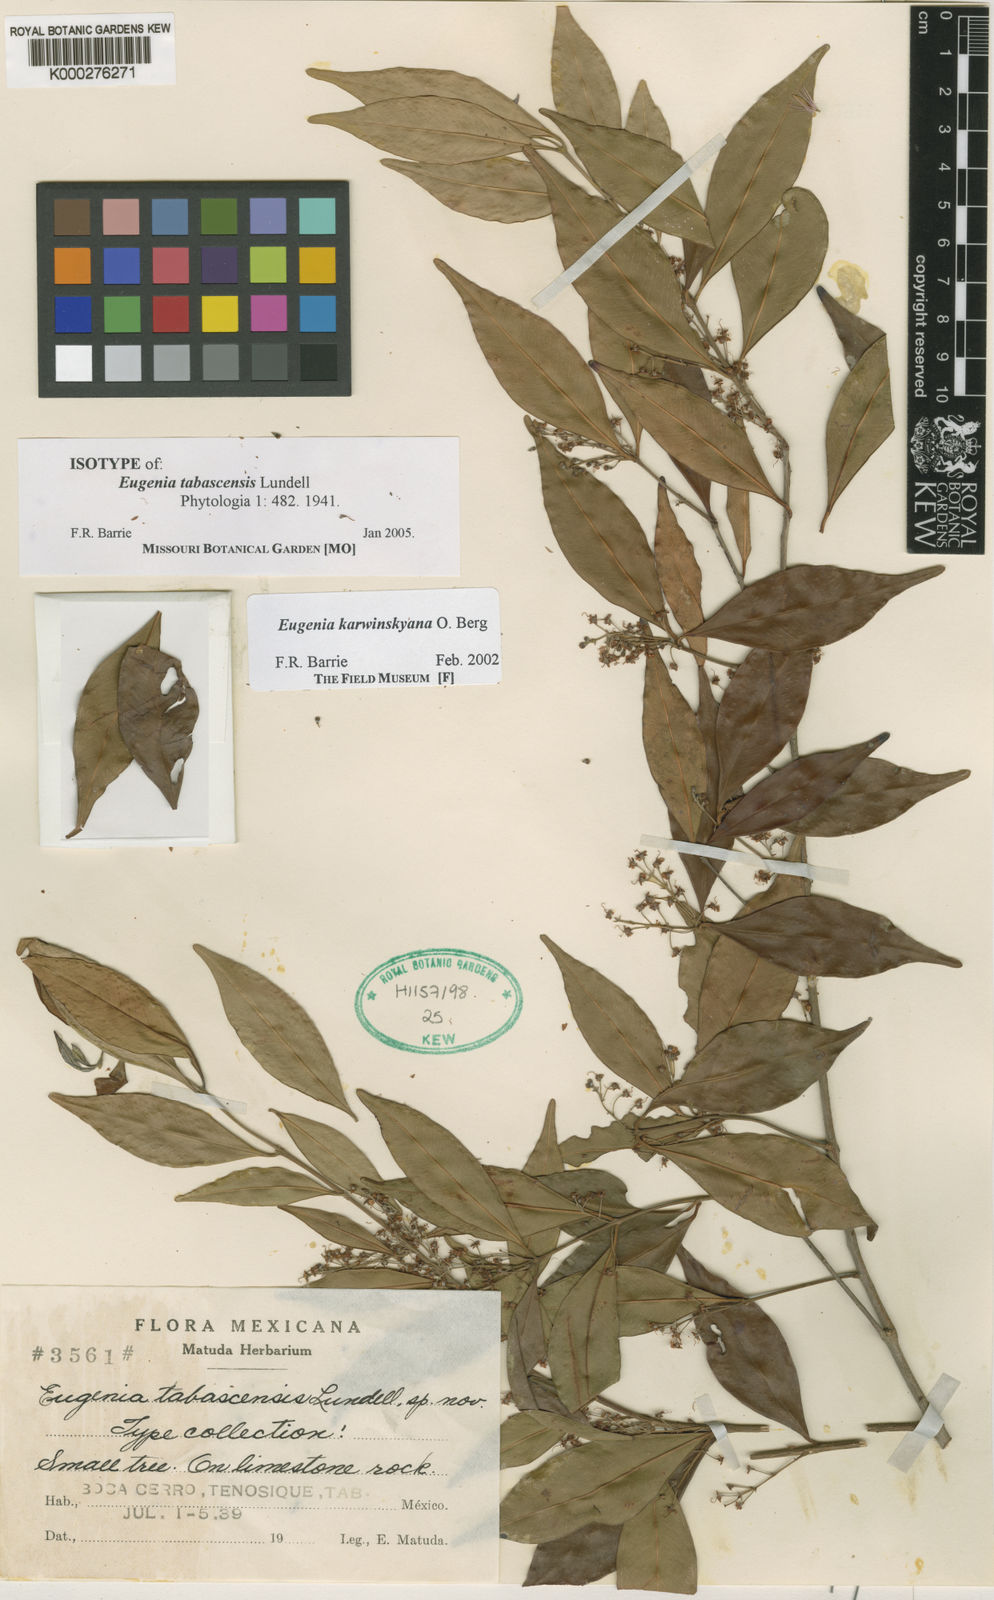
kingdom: Plantae
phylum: Tracheophyta
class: Magnoliopsida
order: Myrtales
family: Myrtaceae
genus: Eugenia
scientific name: Eugenia karwinskyana
